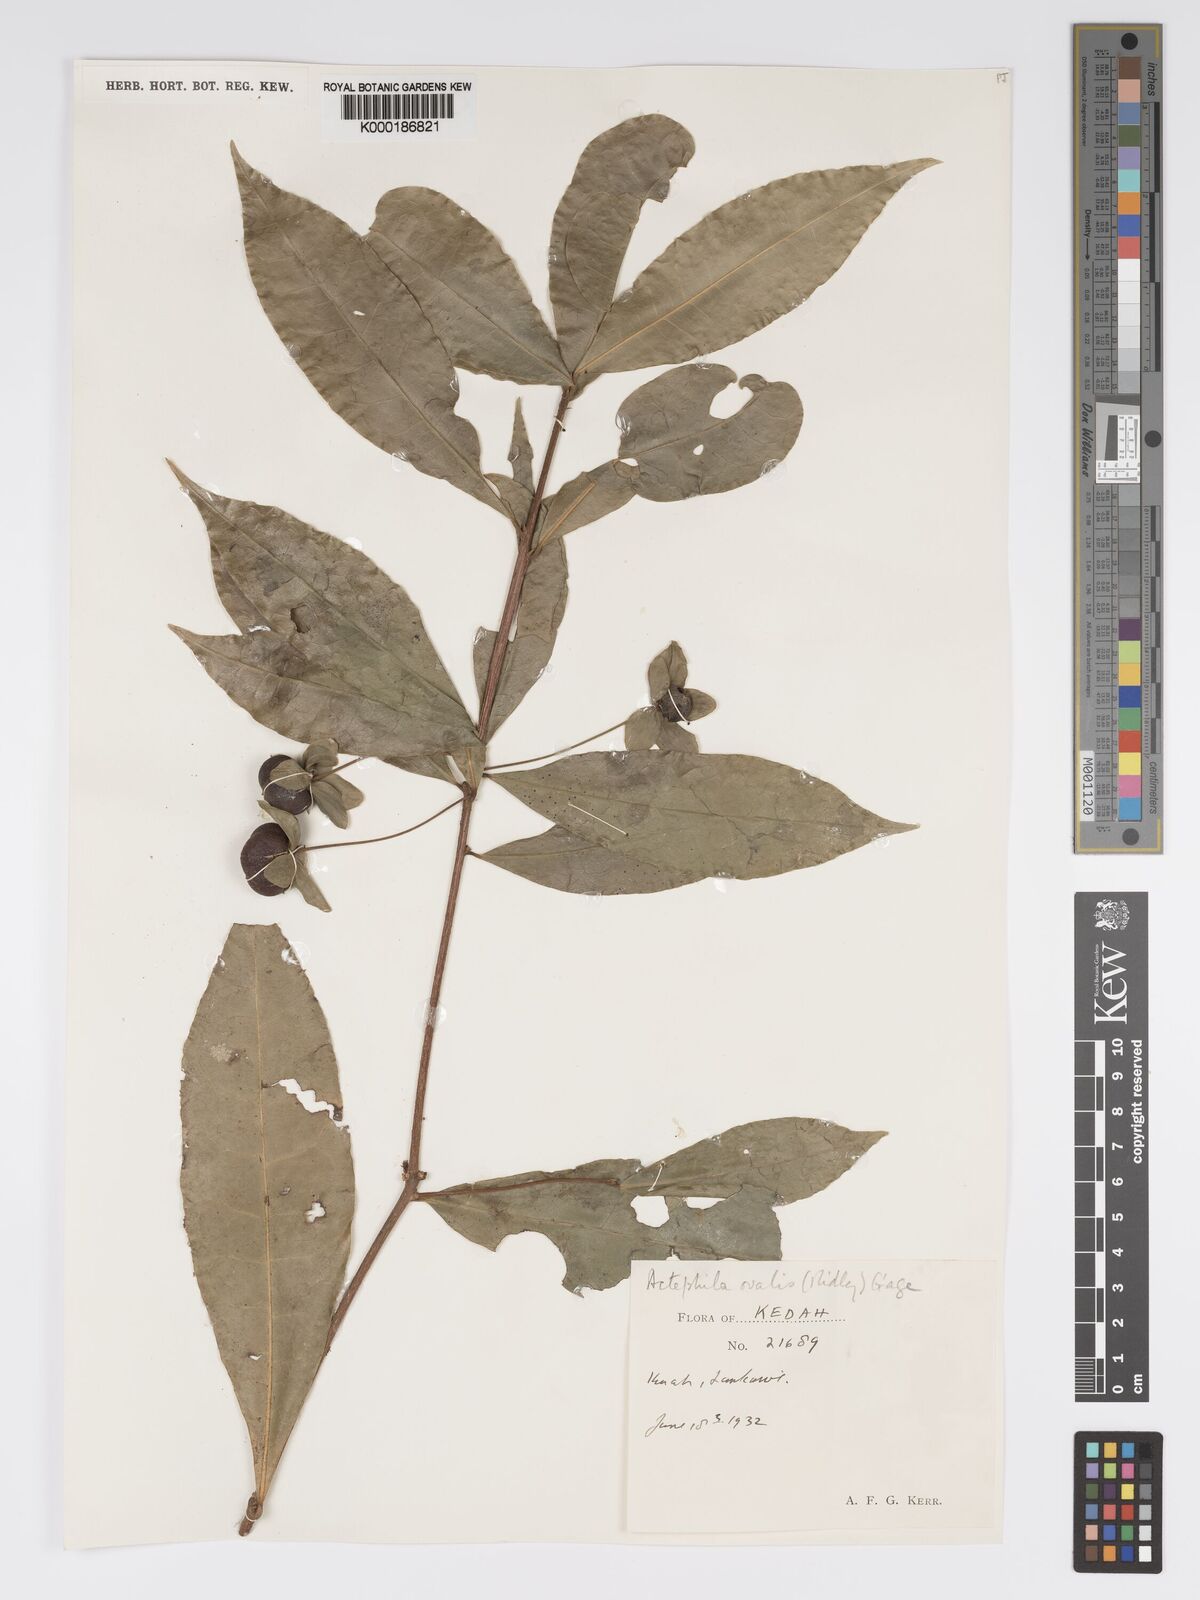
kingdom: Plantae
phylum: Tracheophyta
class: Magnoliopsida
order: Malpighiales
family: Phyllanthaceae
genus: Actephila
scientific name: Actephila ovalis
